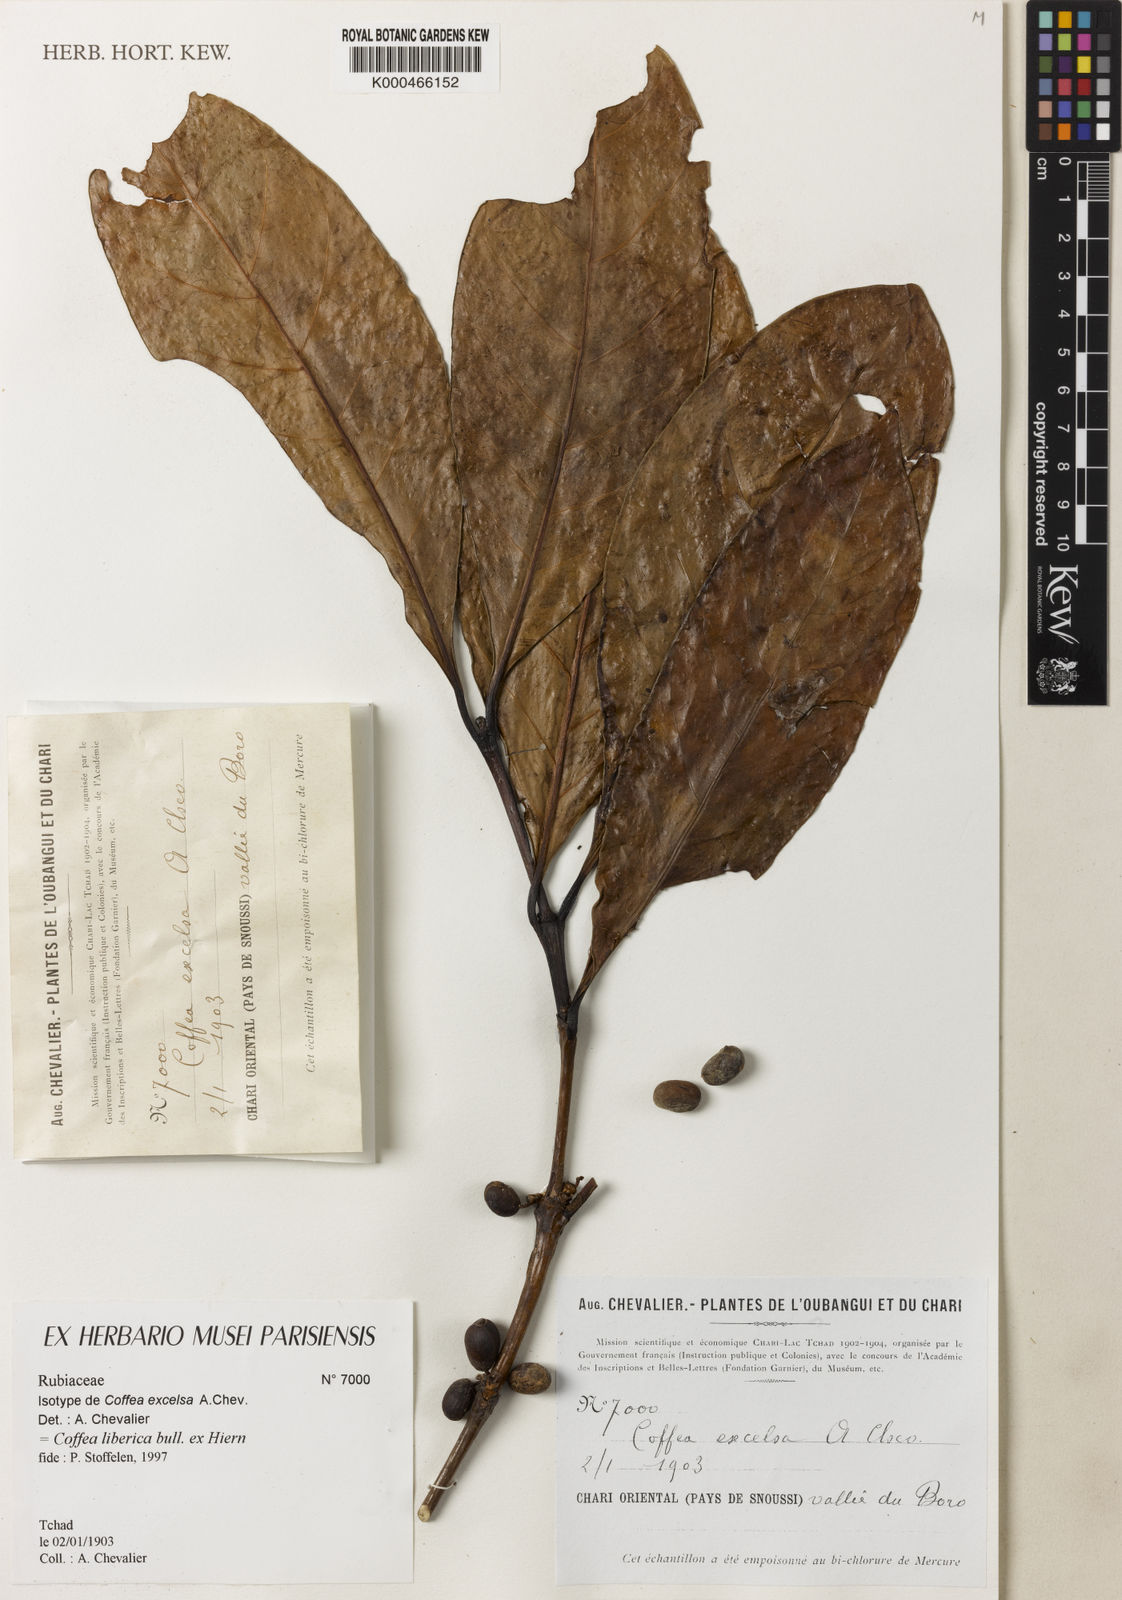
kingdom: Plantae
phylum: Tracheophyta
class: Magnoliopsida
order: Gentianales
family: Rubiaceae
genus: Coffea
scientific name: Coffea
